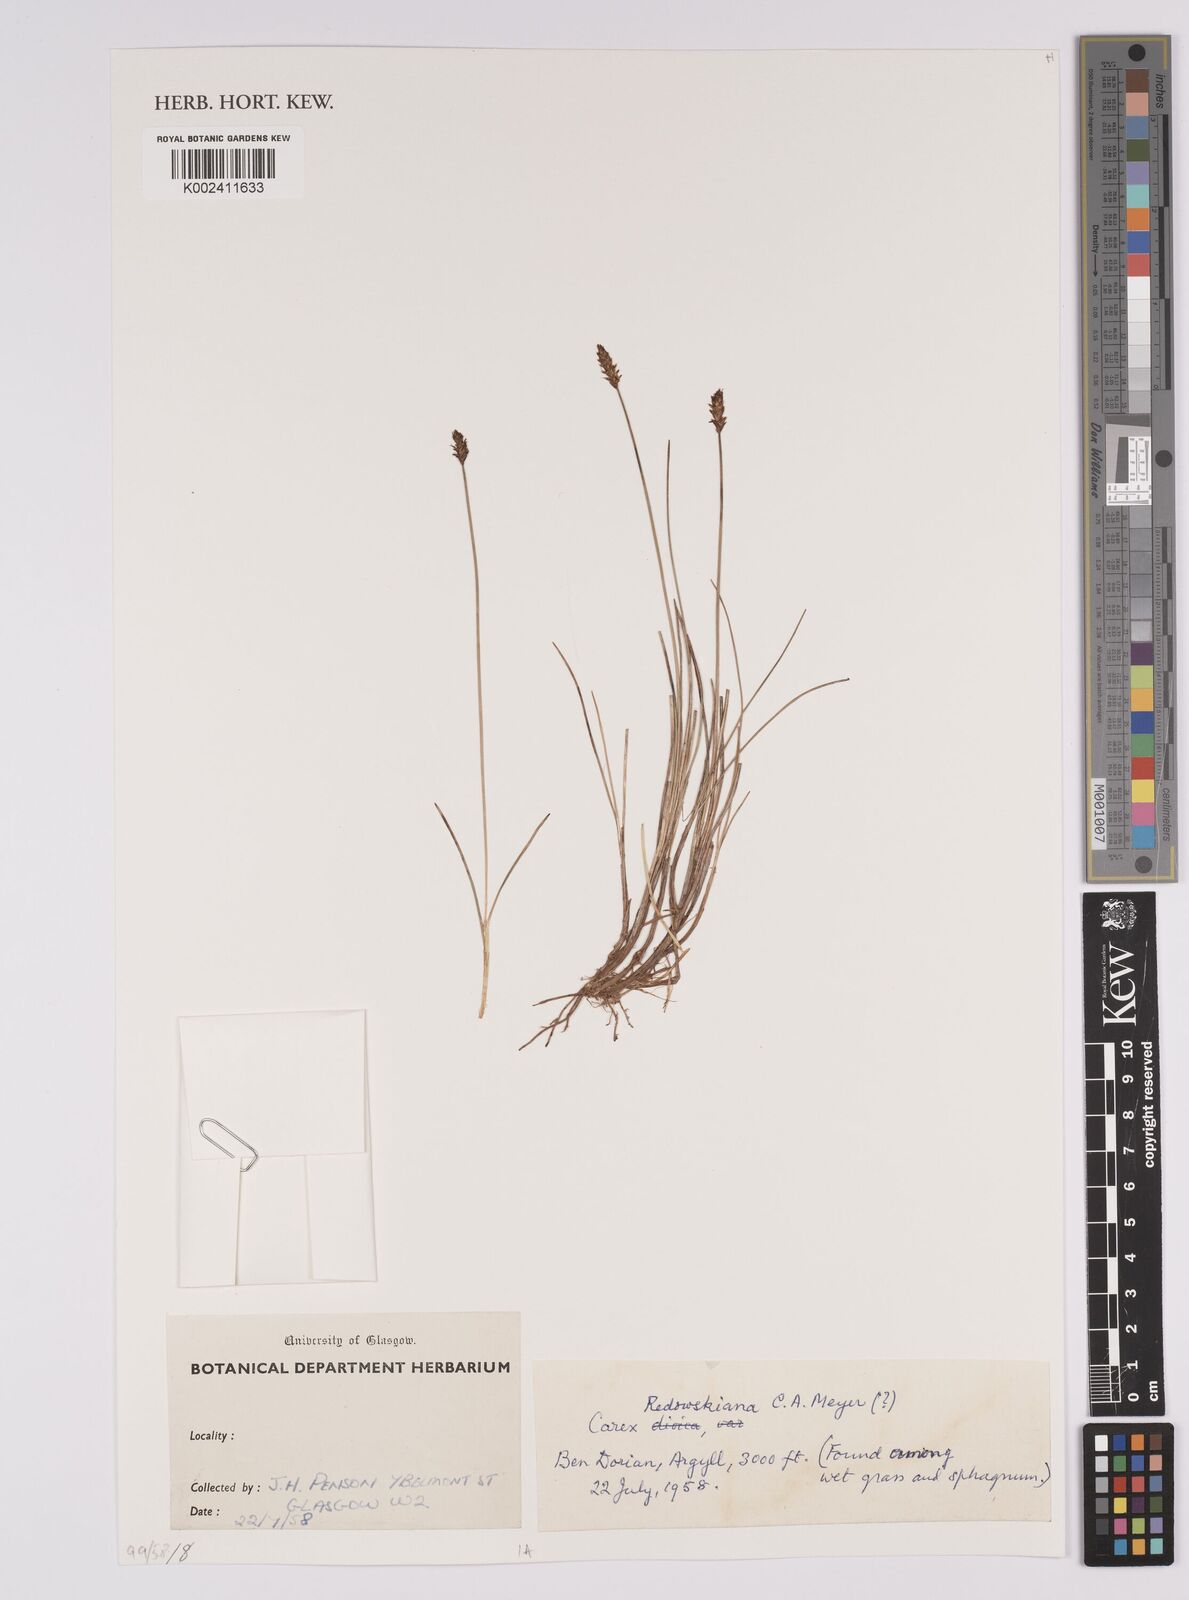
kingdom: Plantae
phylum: Tracheophyta
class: Liliopsida
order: Poales
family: Cyperaceae
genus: Rhynchospora
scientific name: Rhynchospora
